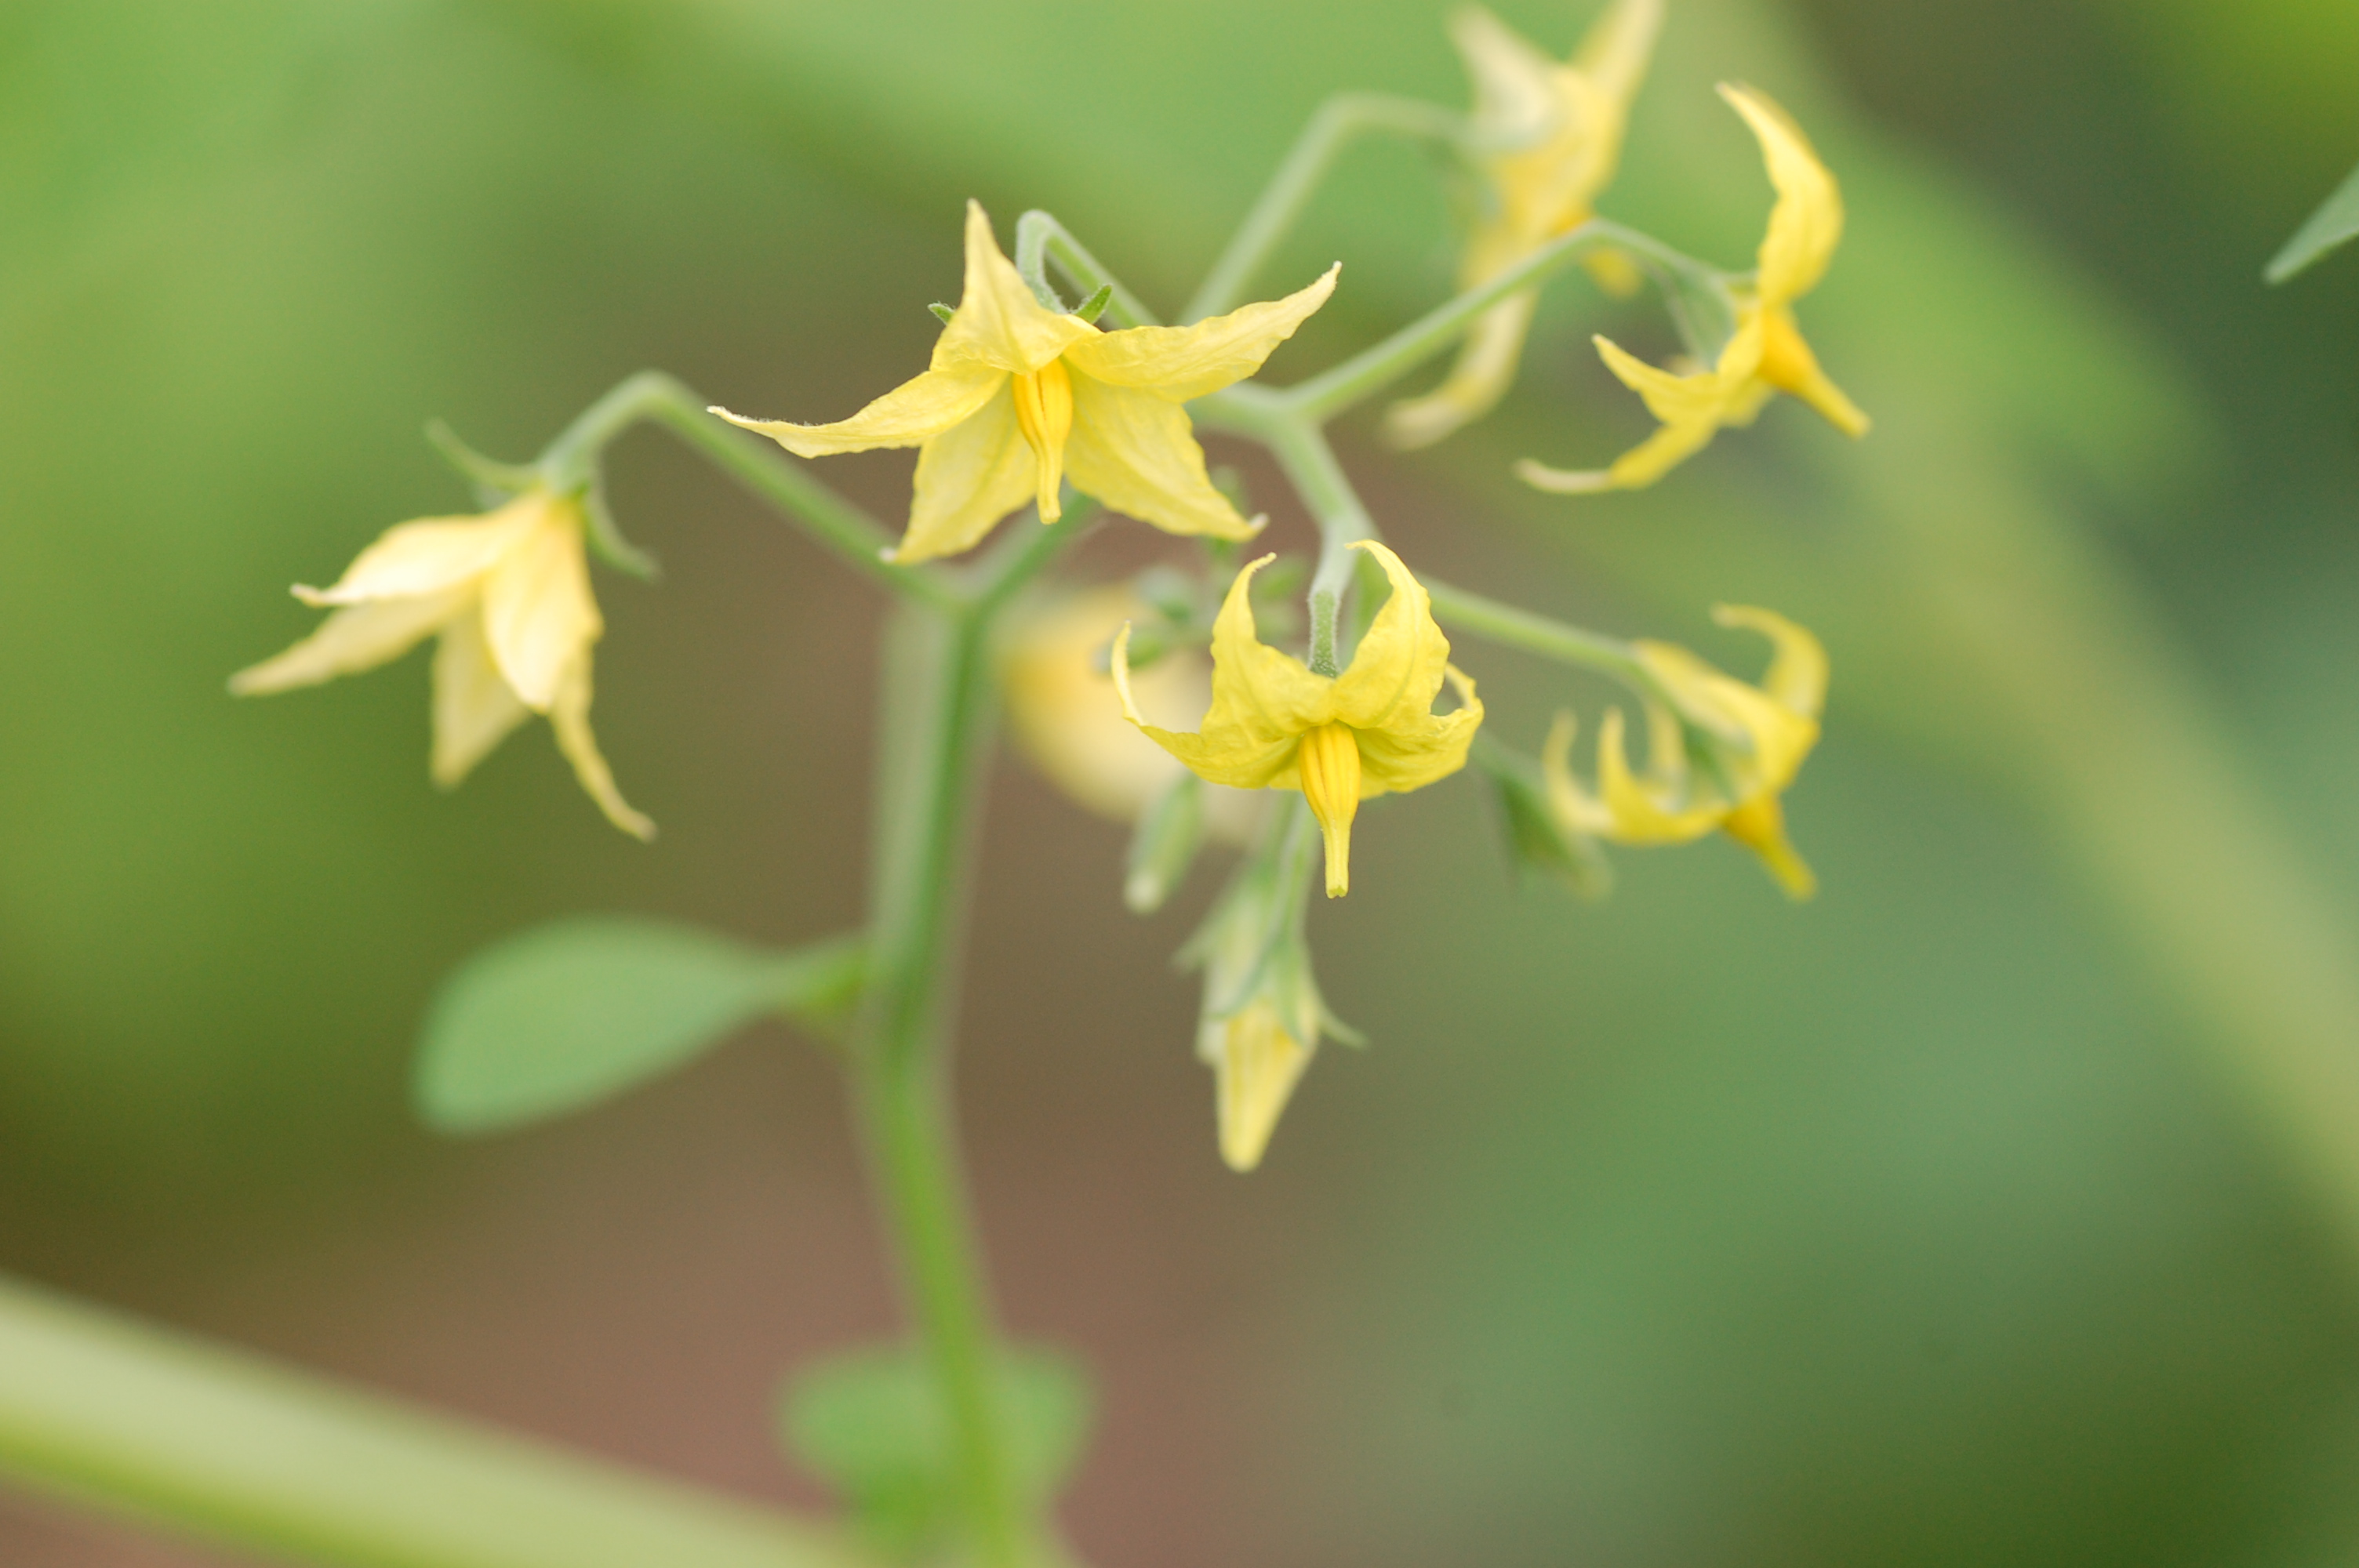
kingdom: Plantae
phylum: Tracheophyta
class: Magnoliopsida
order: Solanales
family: Solanaceae
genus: Solanum
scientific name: Solanum pimpinellifolium
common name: Currant-tomato
